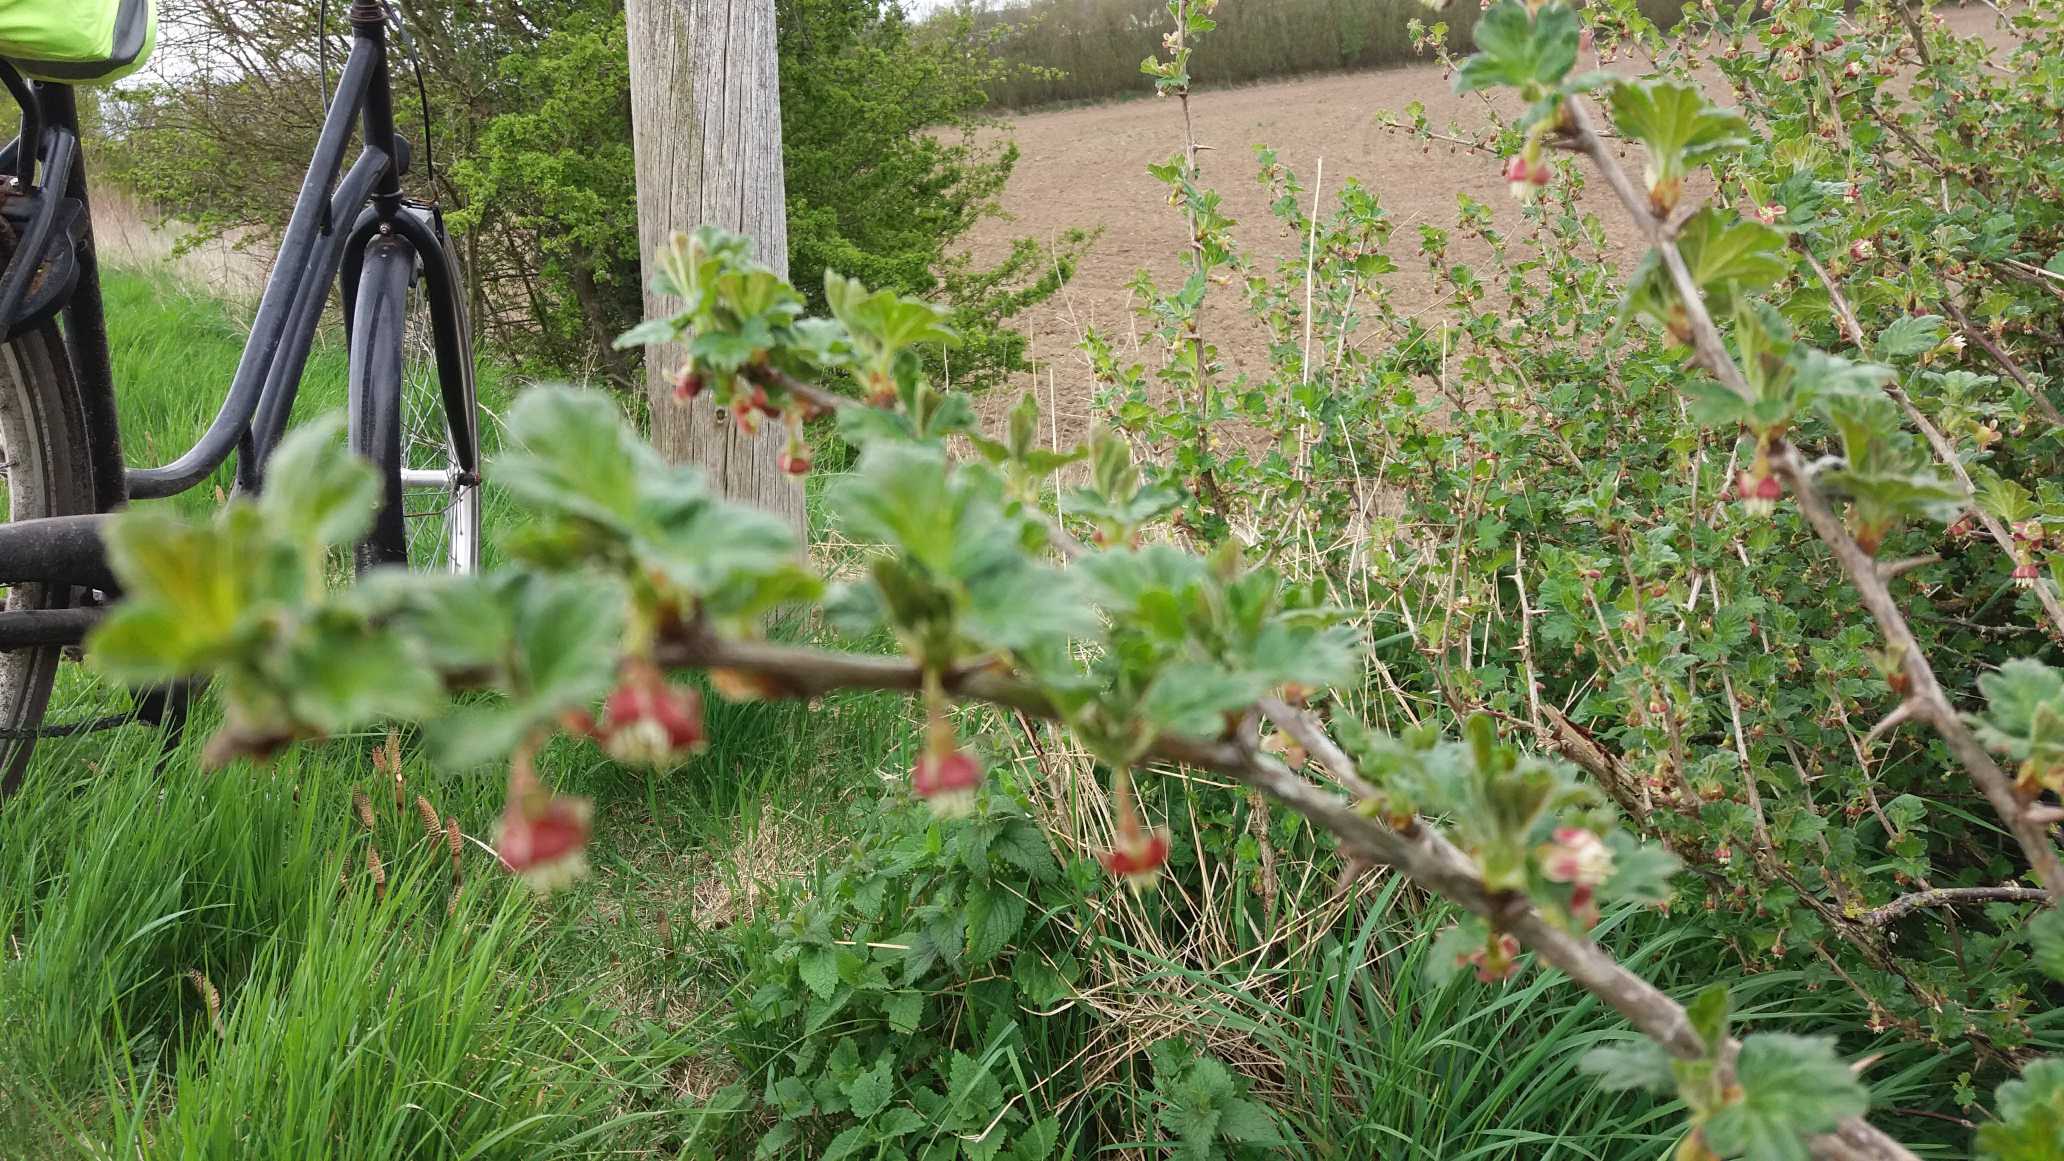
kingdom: Plantae
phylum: Tracheophyta
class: Magnoliopsida
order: Saxifragales
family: Grossulariaceae
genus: Ribes
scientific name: Ribes uva-crispa
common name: Stikkelsbær
